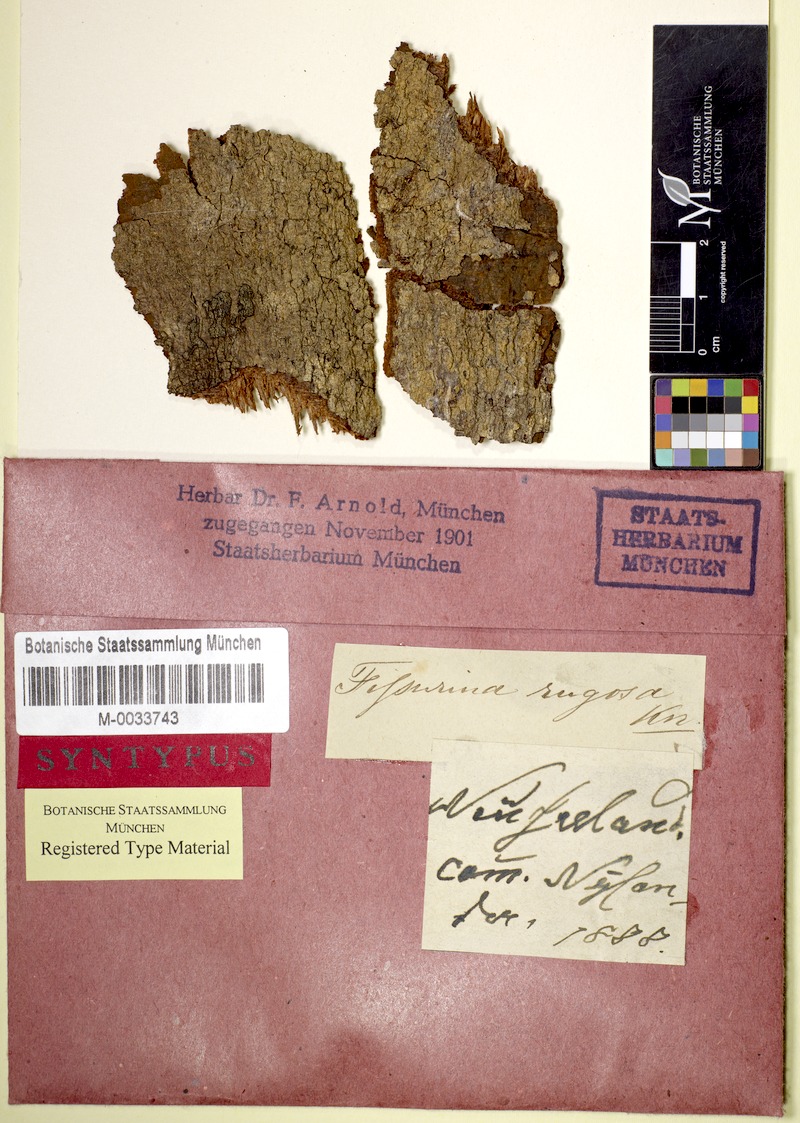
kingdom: Fungi
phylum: Ascomycota
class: Lecanoromycetes
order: Ostropales
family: Graphidaceae
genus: Fissurina
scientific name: Fissurina insidiosa
